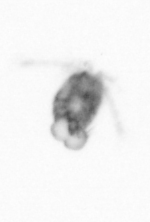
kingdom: Animalia
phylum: Arthropoda
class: Copepoda
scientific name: Copepoda
